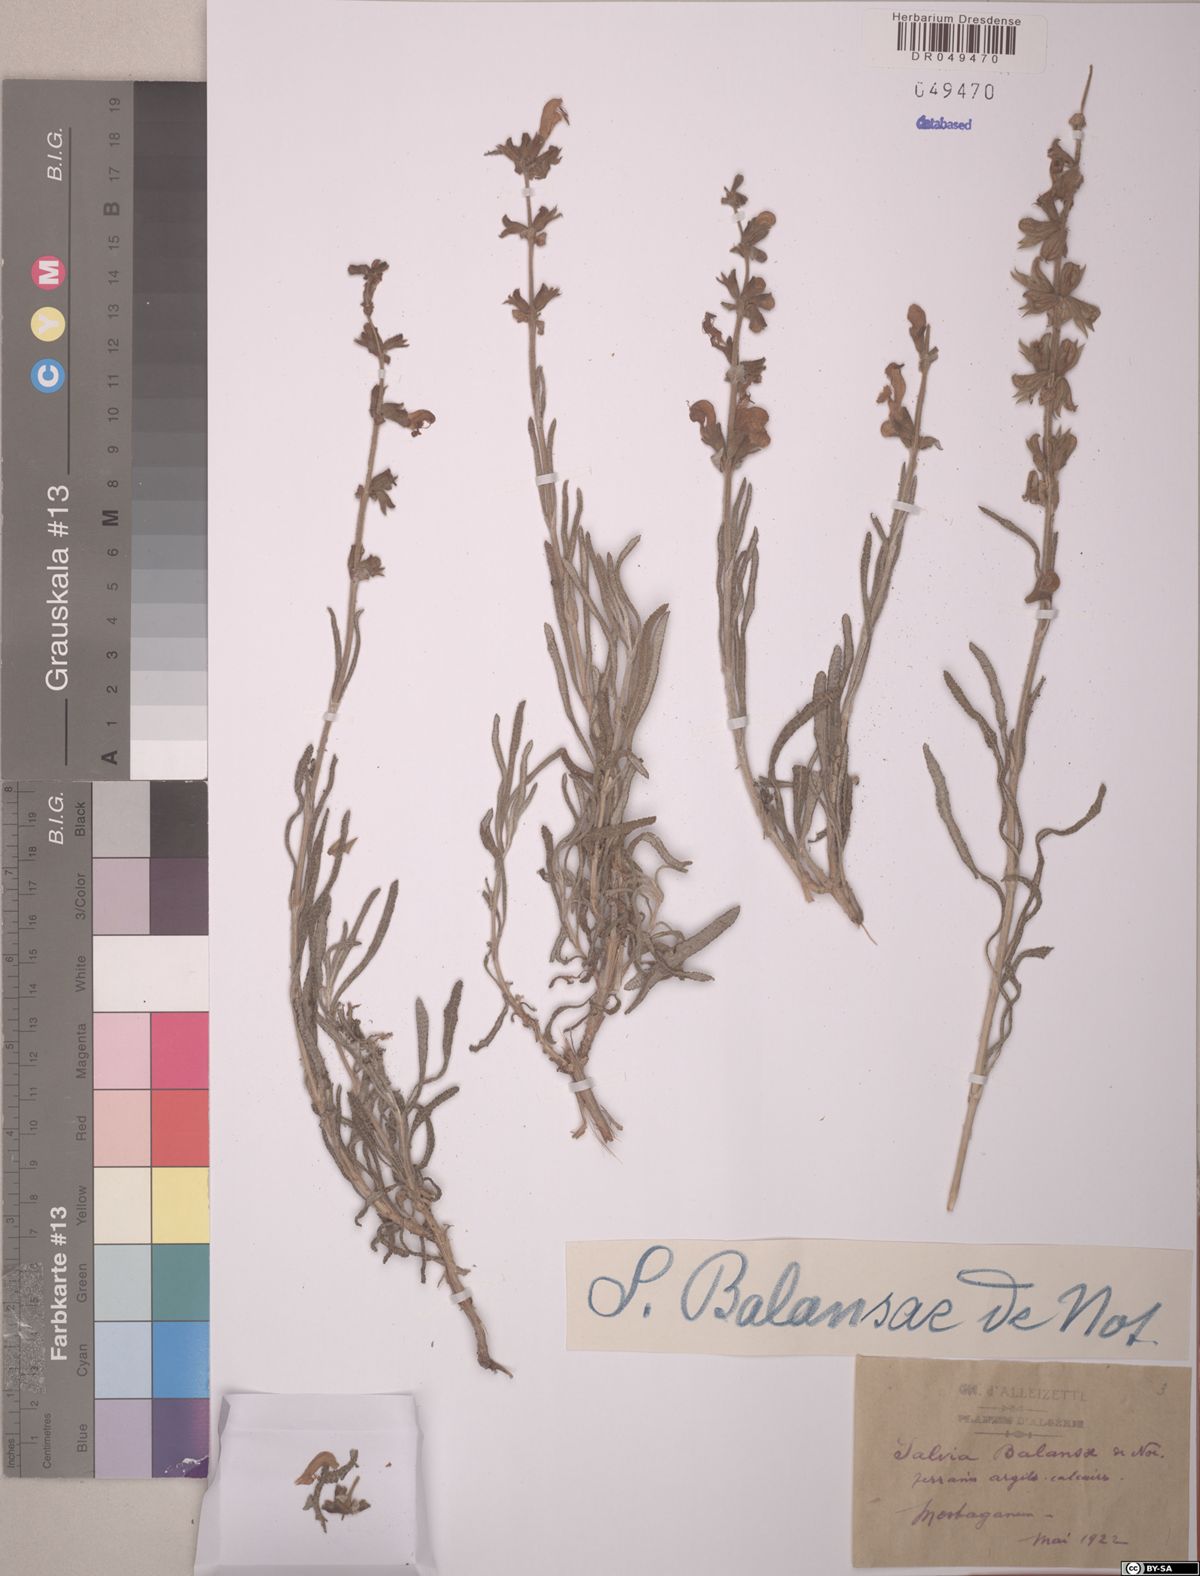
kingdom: Plantae
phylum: Tracheophyta
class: Magnoliopsida
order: Lamiales
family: Lamiaceae
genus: Salvia
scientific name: Salvia balansae
